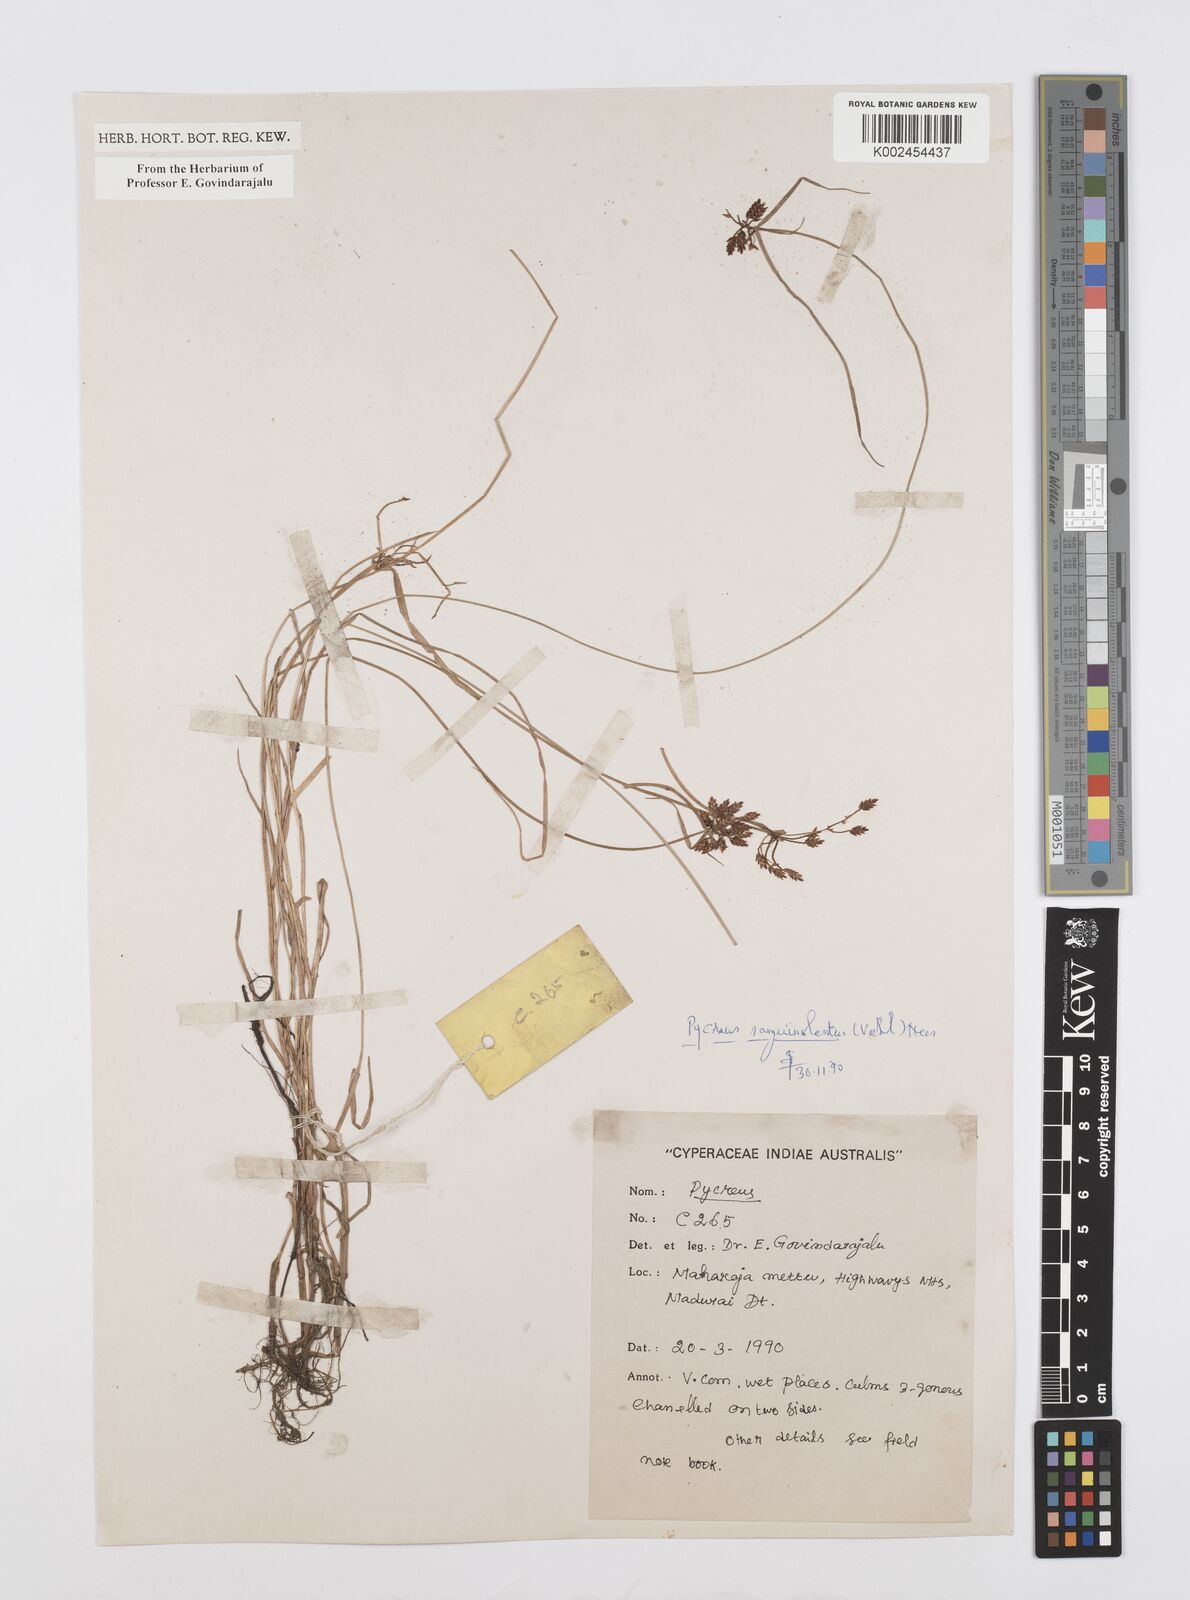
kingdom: Plantae
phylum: Tracheophyta
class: Liliopsida
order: Poales
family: Cyperaceae
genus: Cyperus
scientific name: Cyperus sanguinolentus
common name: Purpleglume flatsedge
